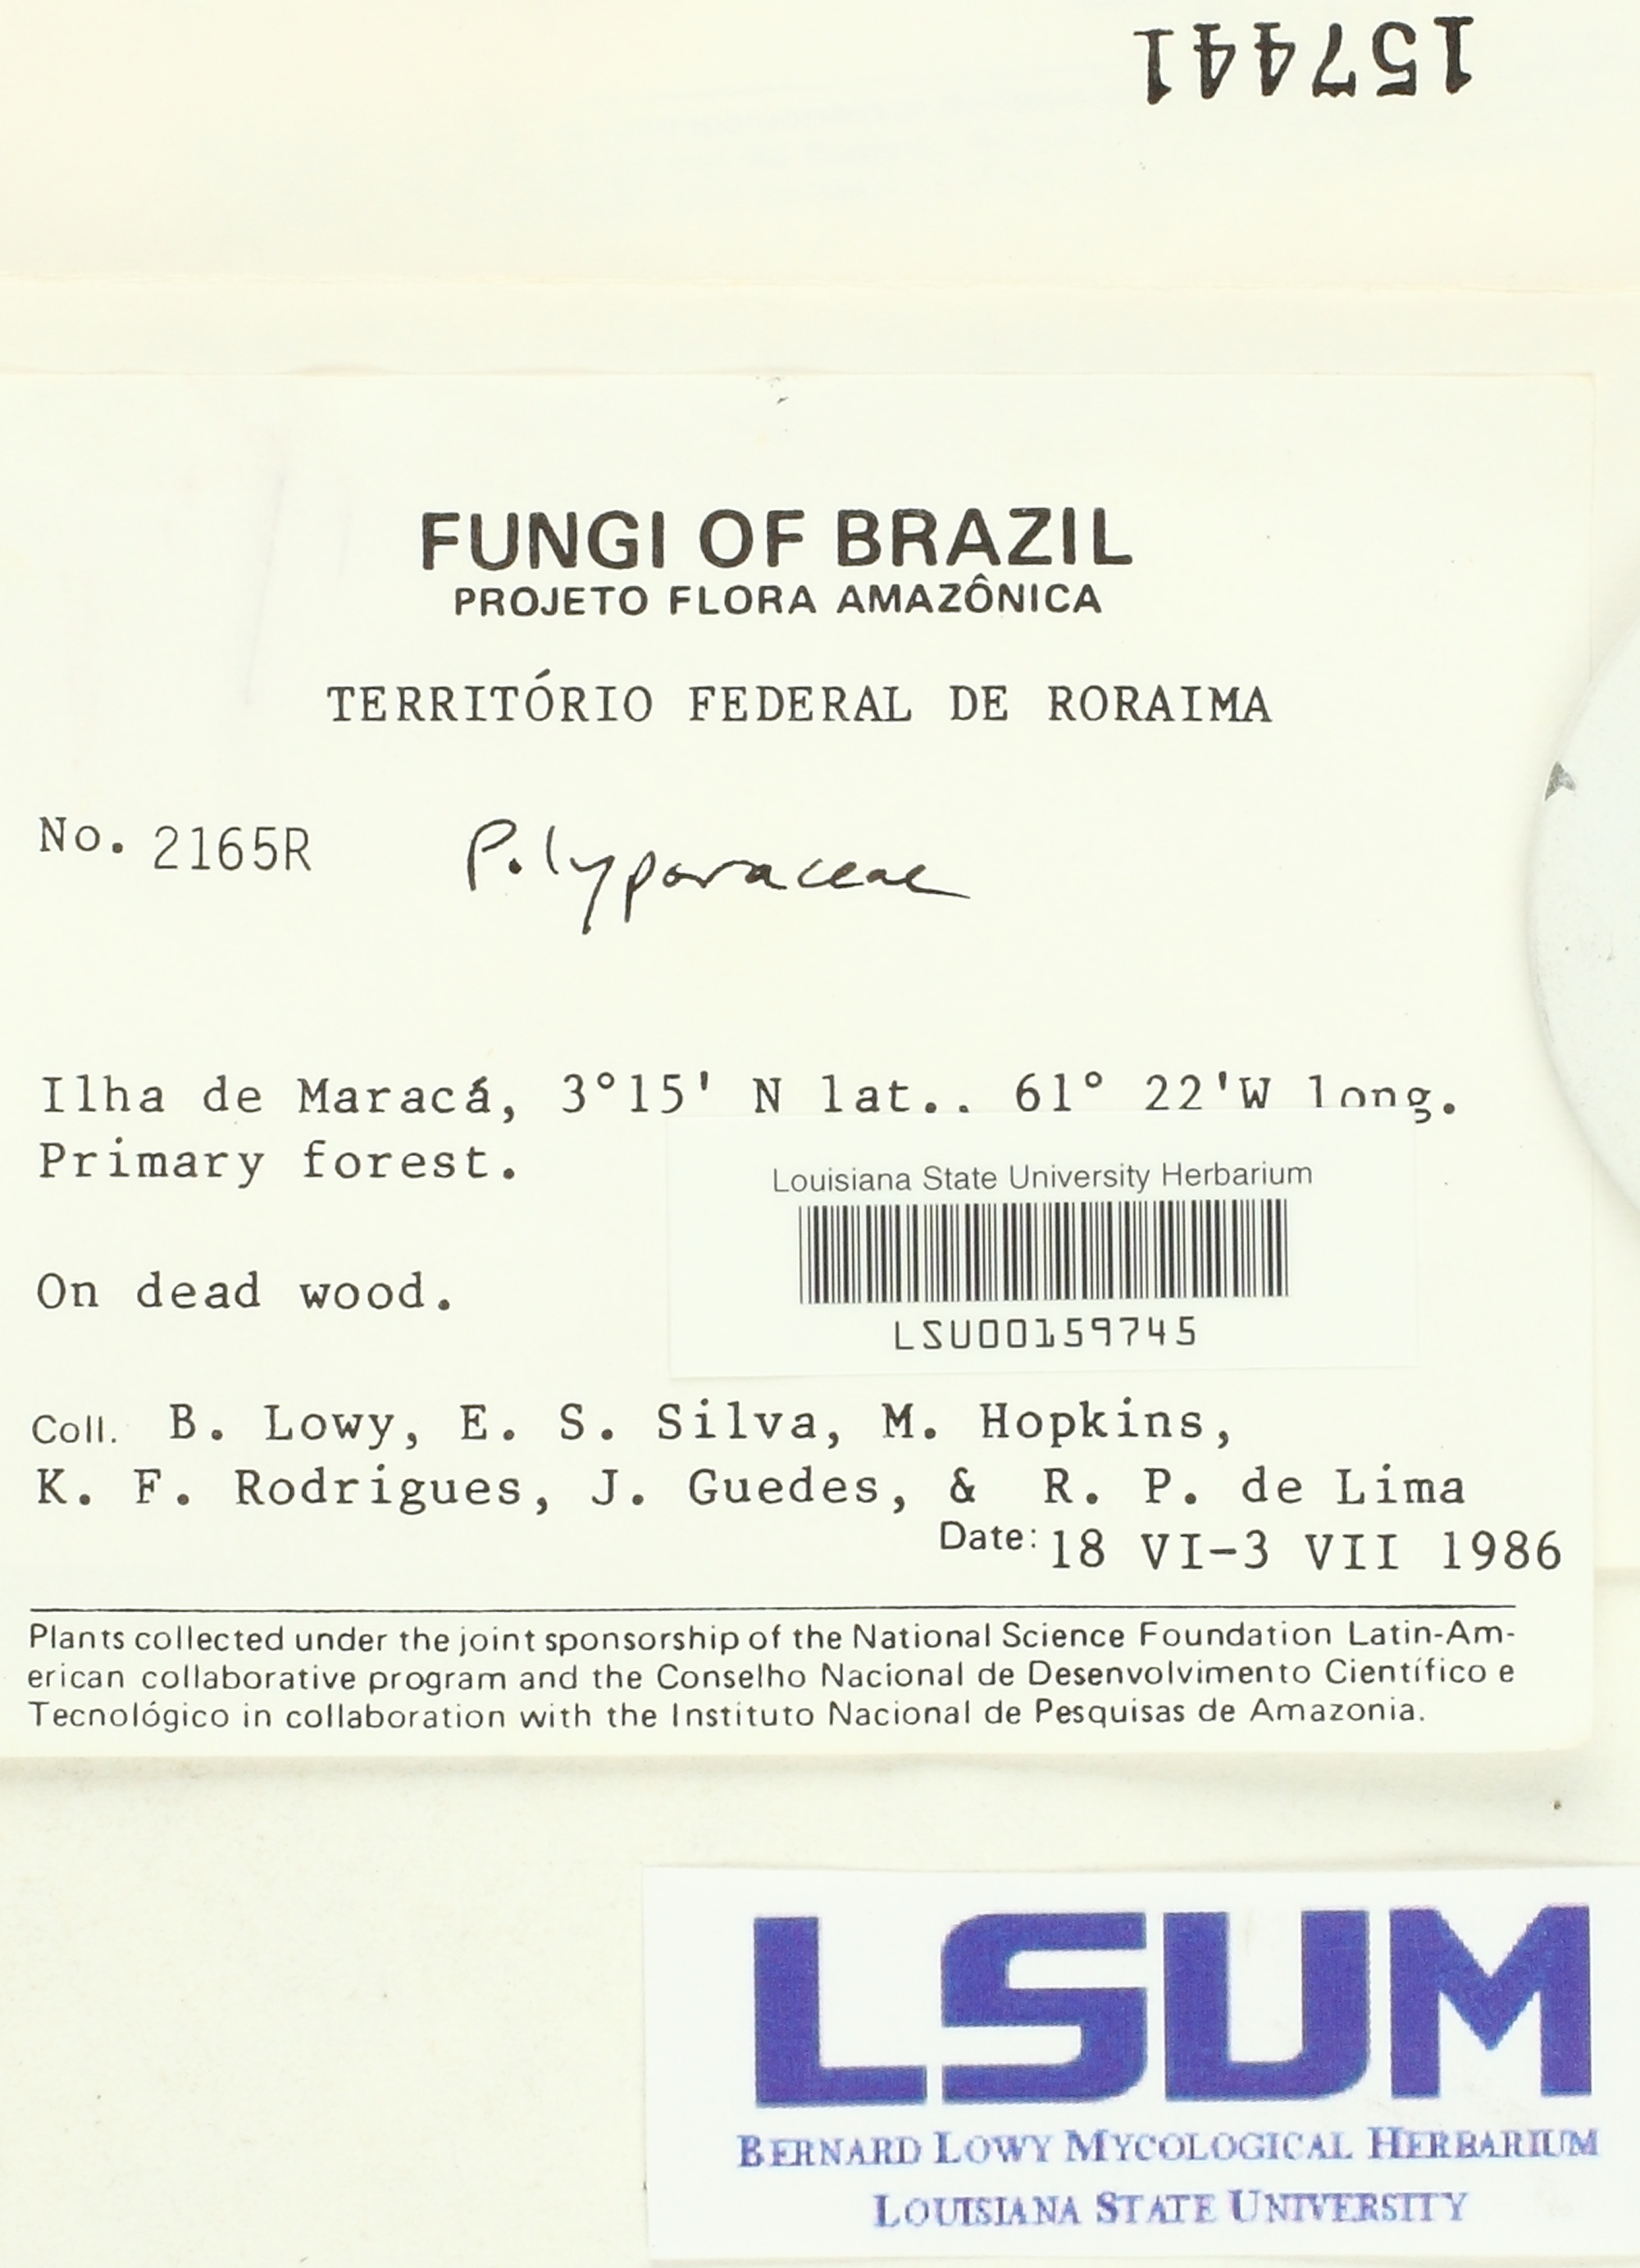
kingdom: Fungi
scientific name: Fungi
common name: Fungi
